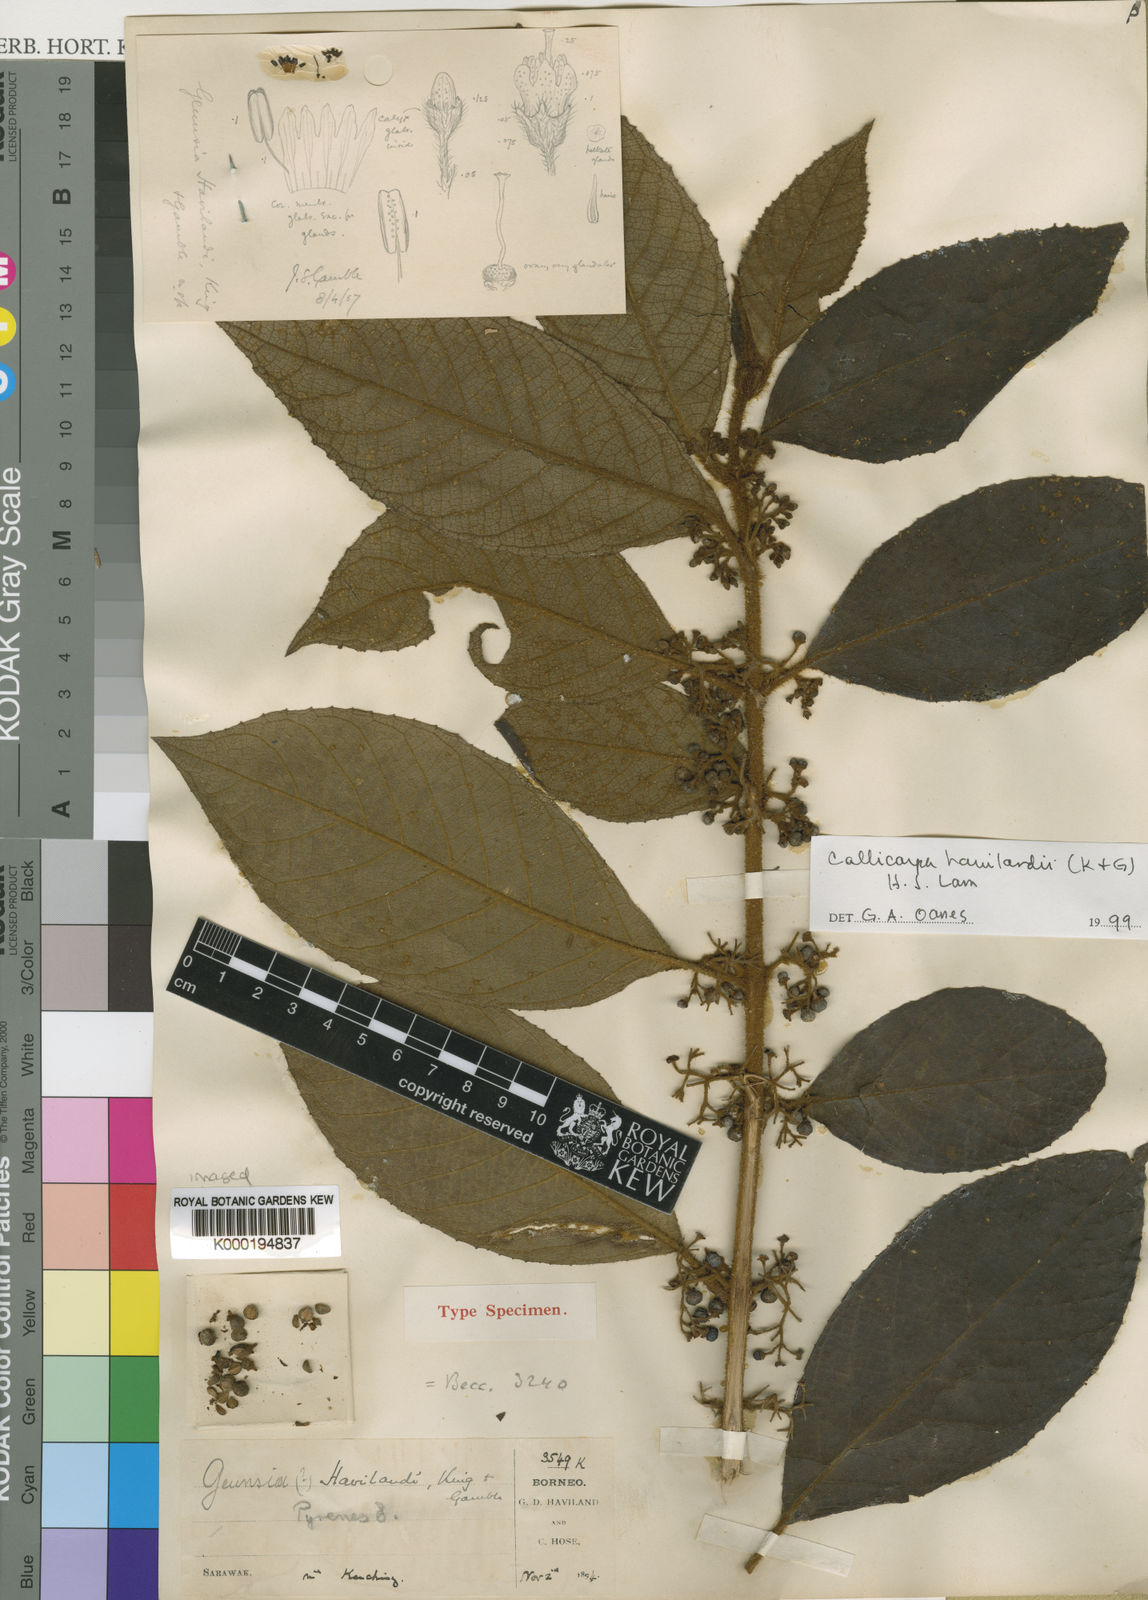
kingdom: Plantae
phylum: Tracheophyta
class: Magnoliopsida
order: Lamiales
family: Lamiaceae
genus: Callicarpa
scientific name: Callicarpa havilandii
